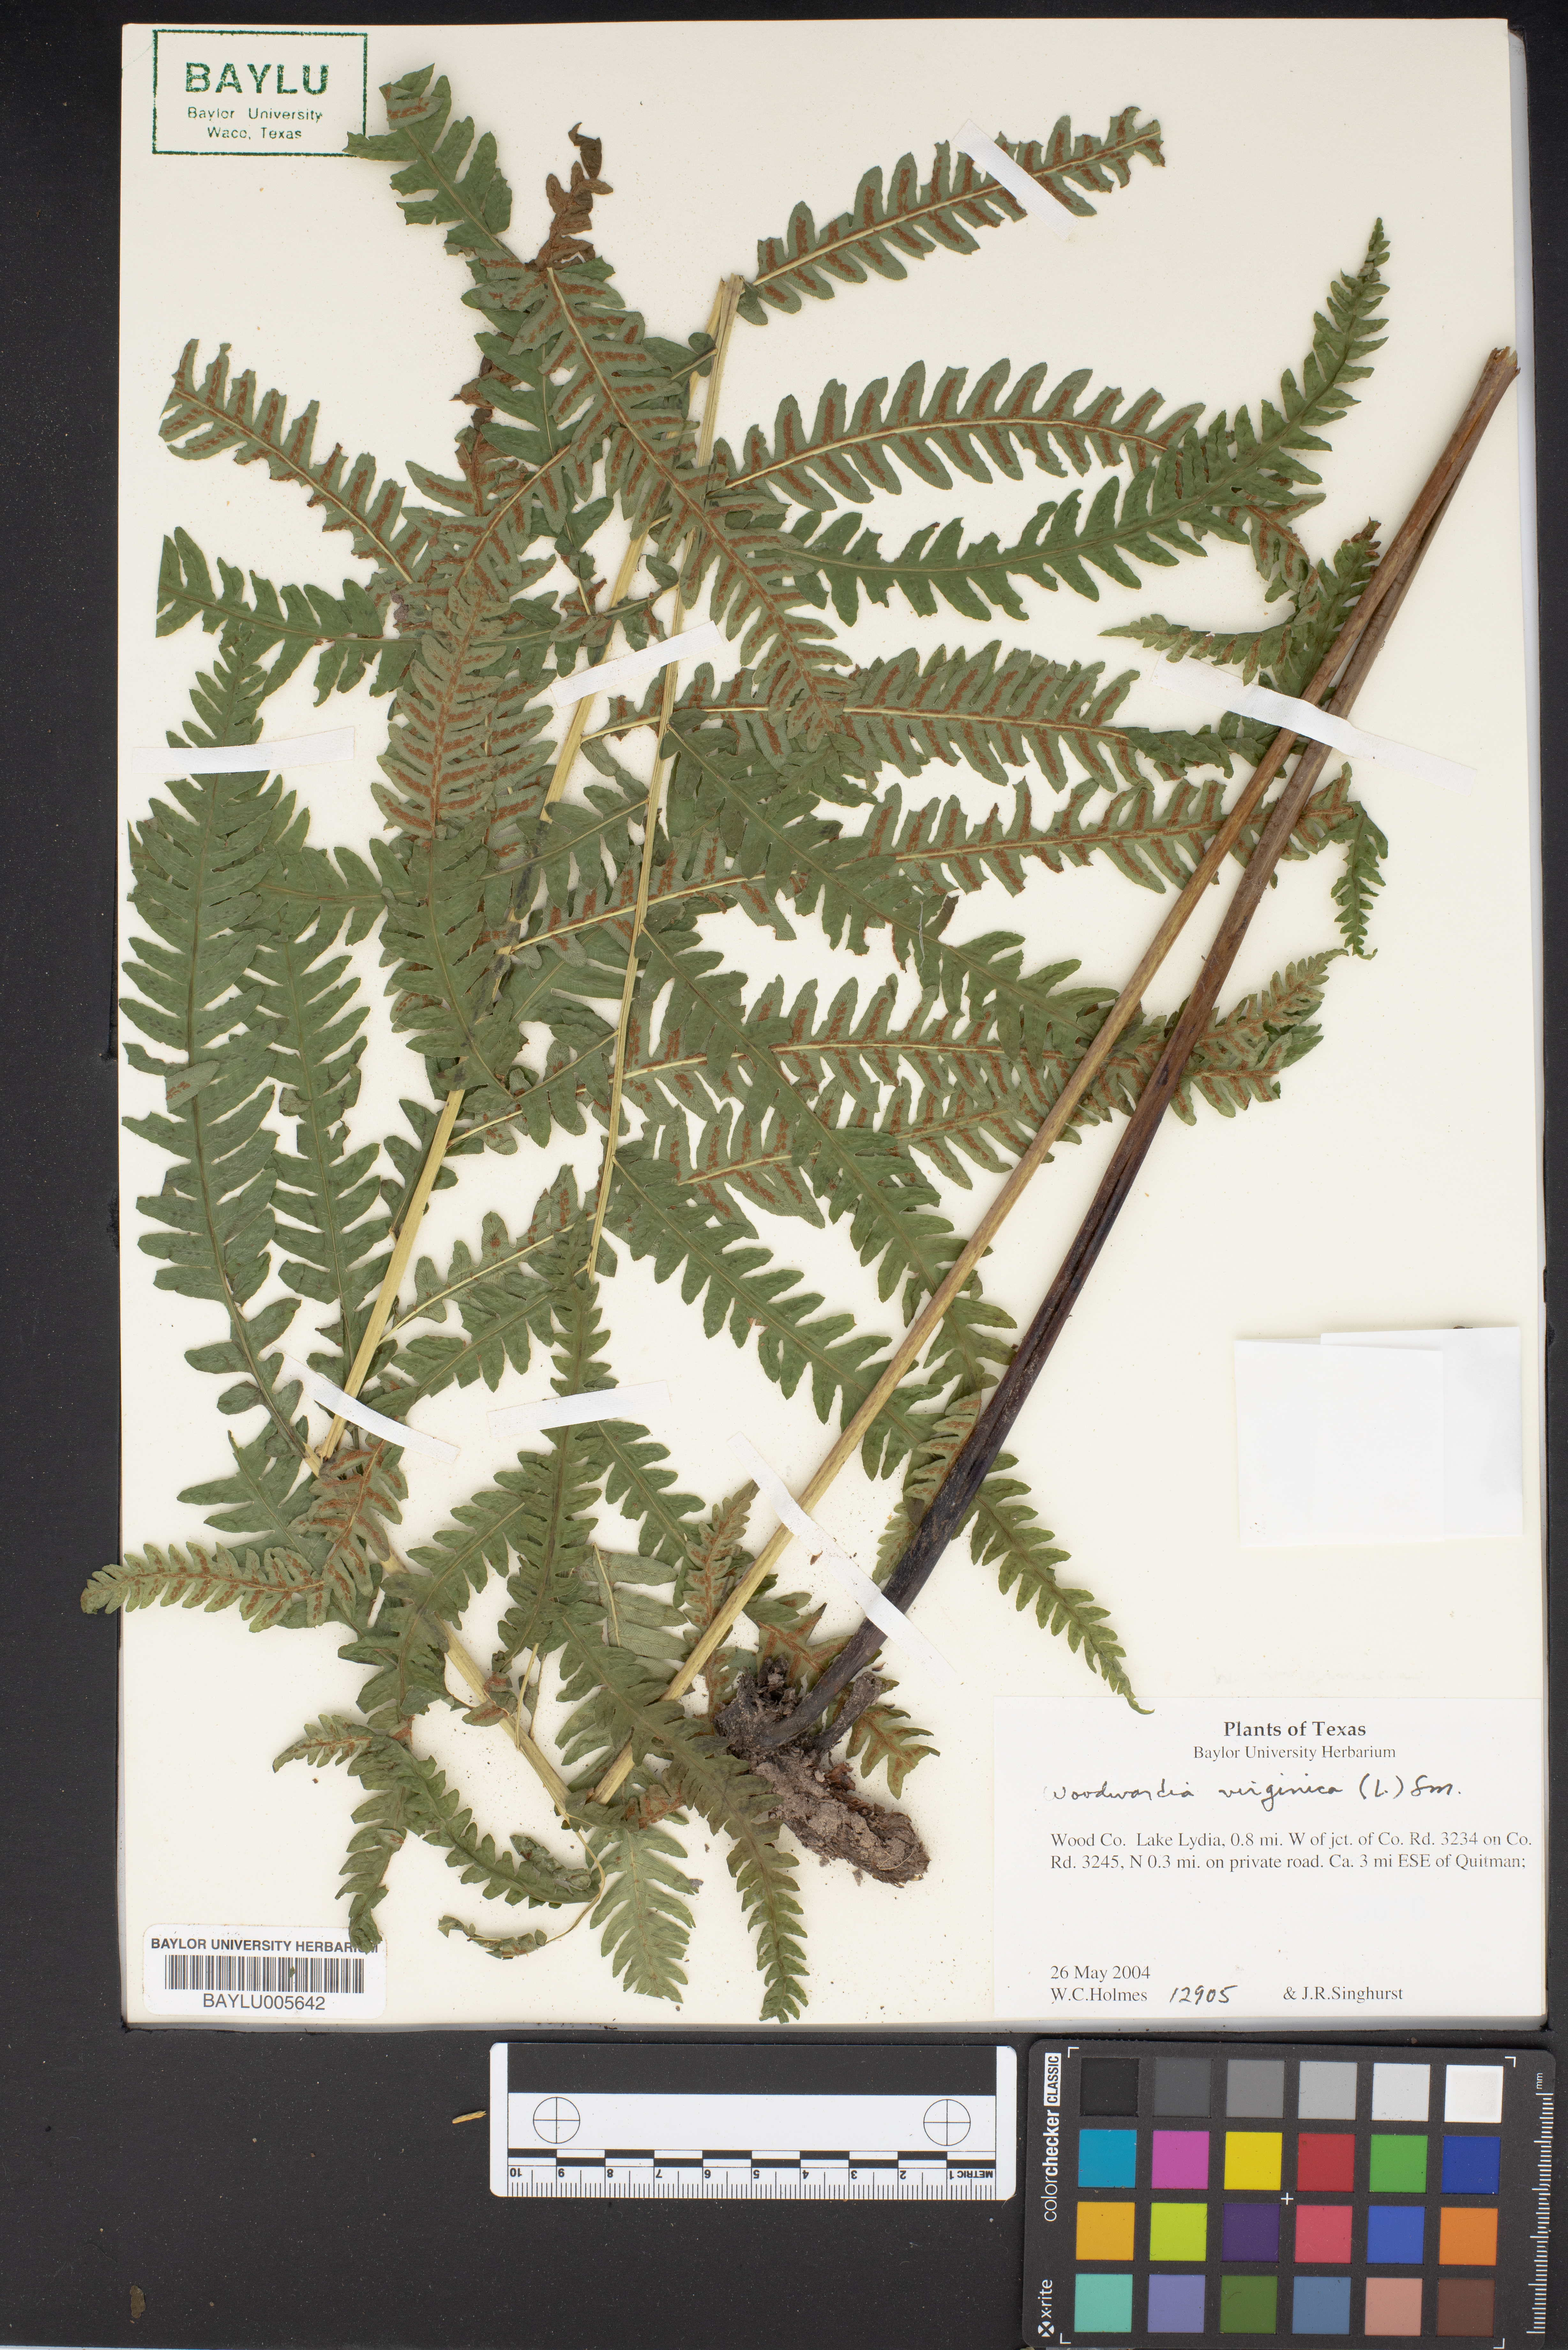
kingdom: Plantae
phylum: Tracheophyta
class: Polypodiopsida
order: Polypodiales
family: Blechnaceae
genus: Anchistea
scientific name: Anchistea virginica
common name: Virginia chain fern
